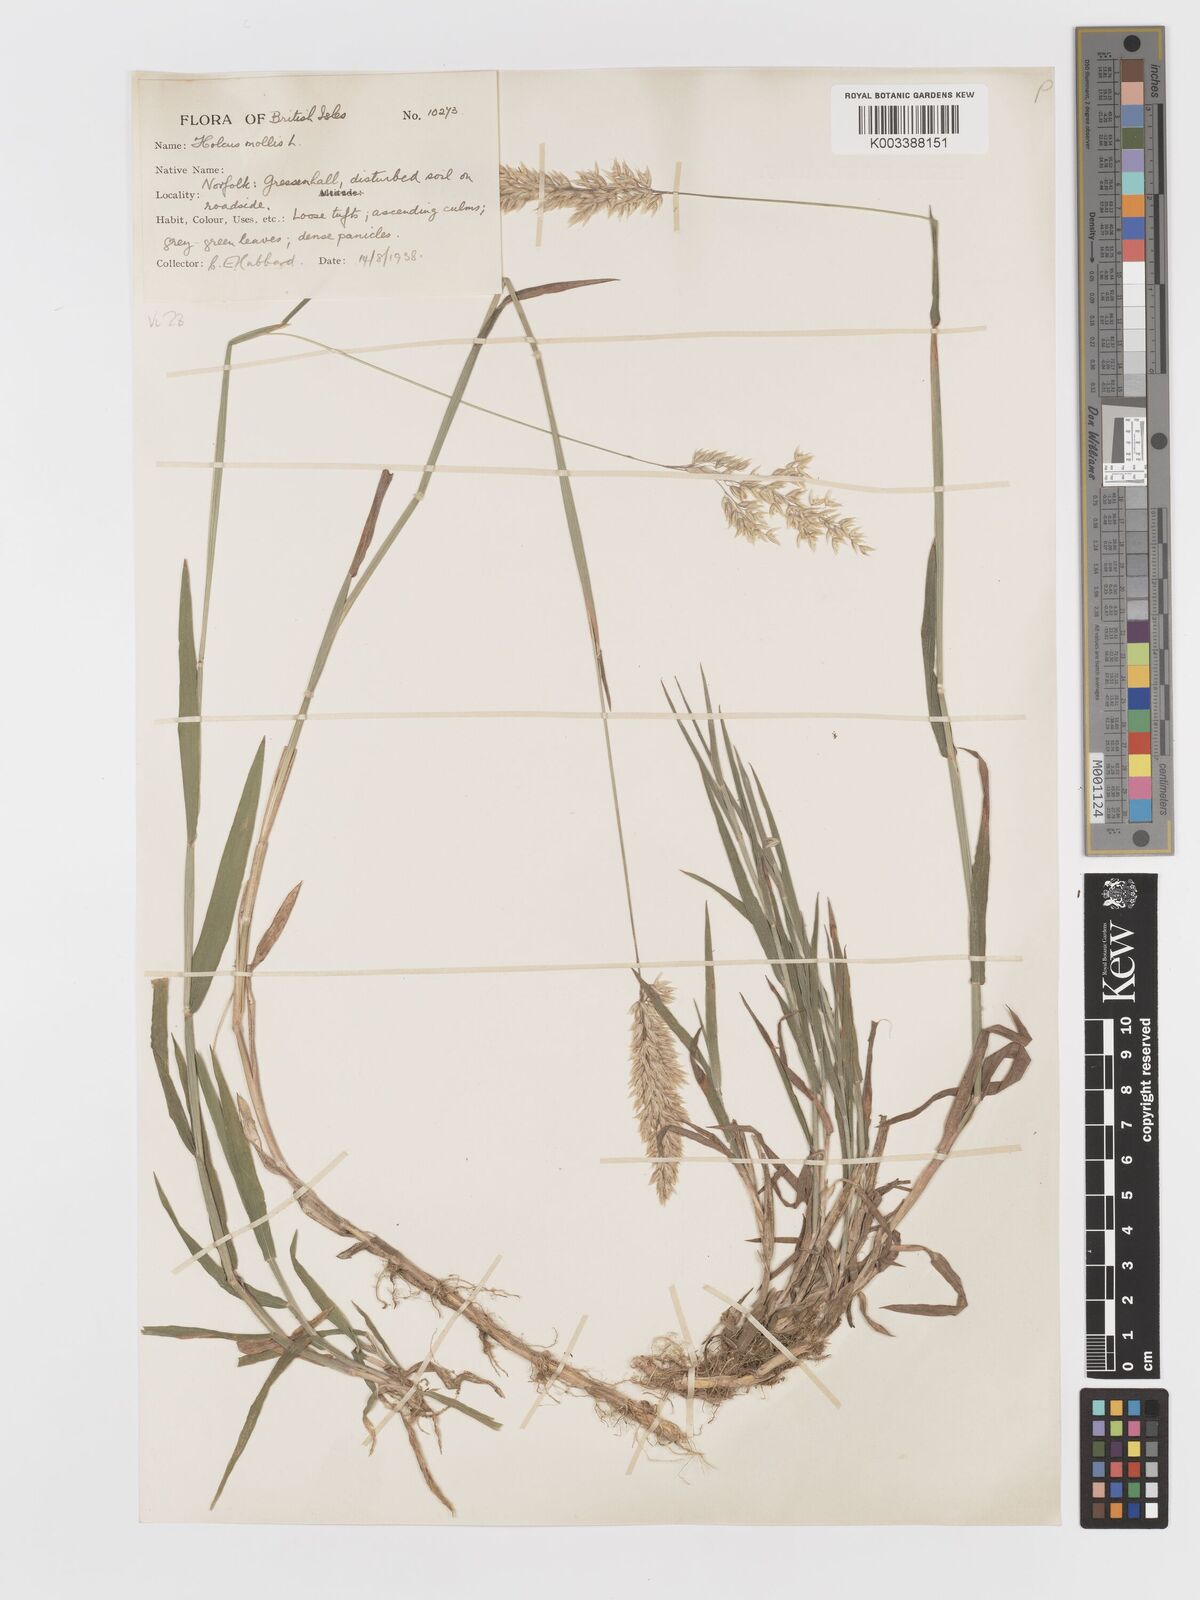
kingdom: Plantae
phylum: Tracheophyta
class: Liliopsida
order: Poales
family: Poaceae
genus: Holcus
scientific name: Holcus mollis
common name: Creeping velvetgrass
